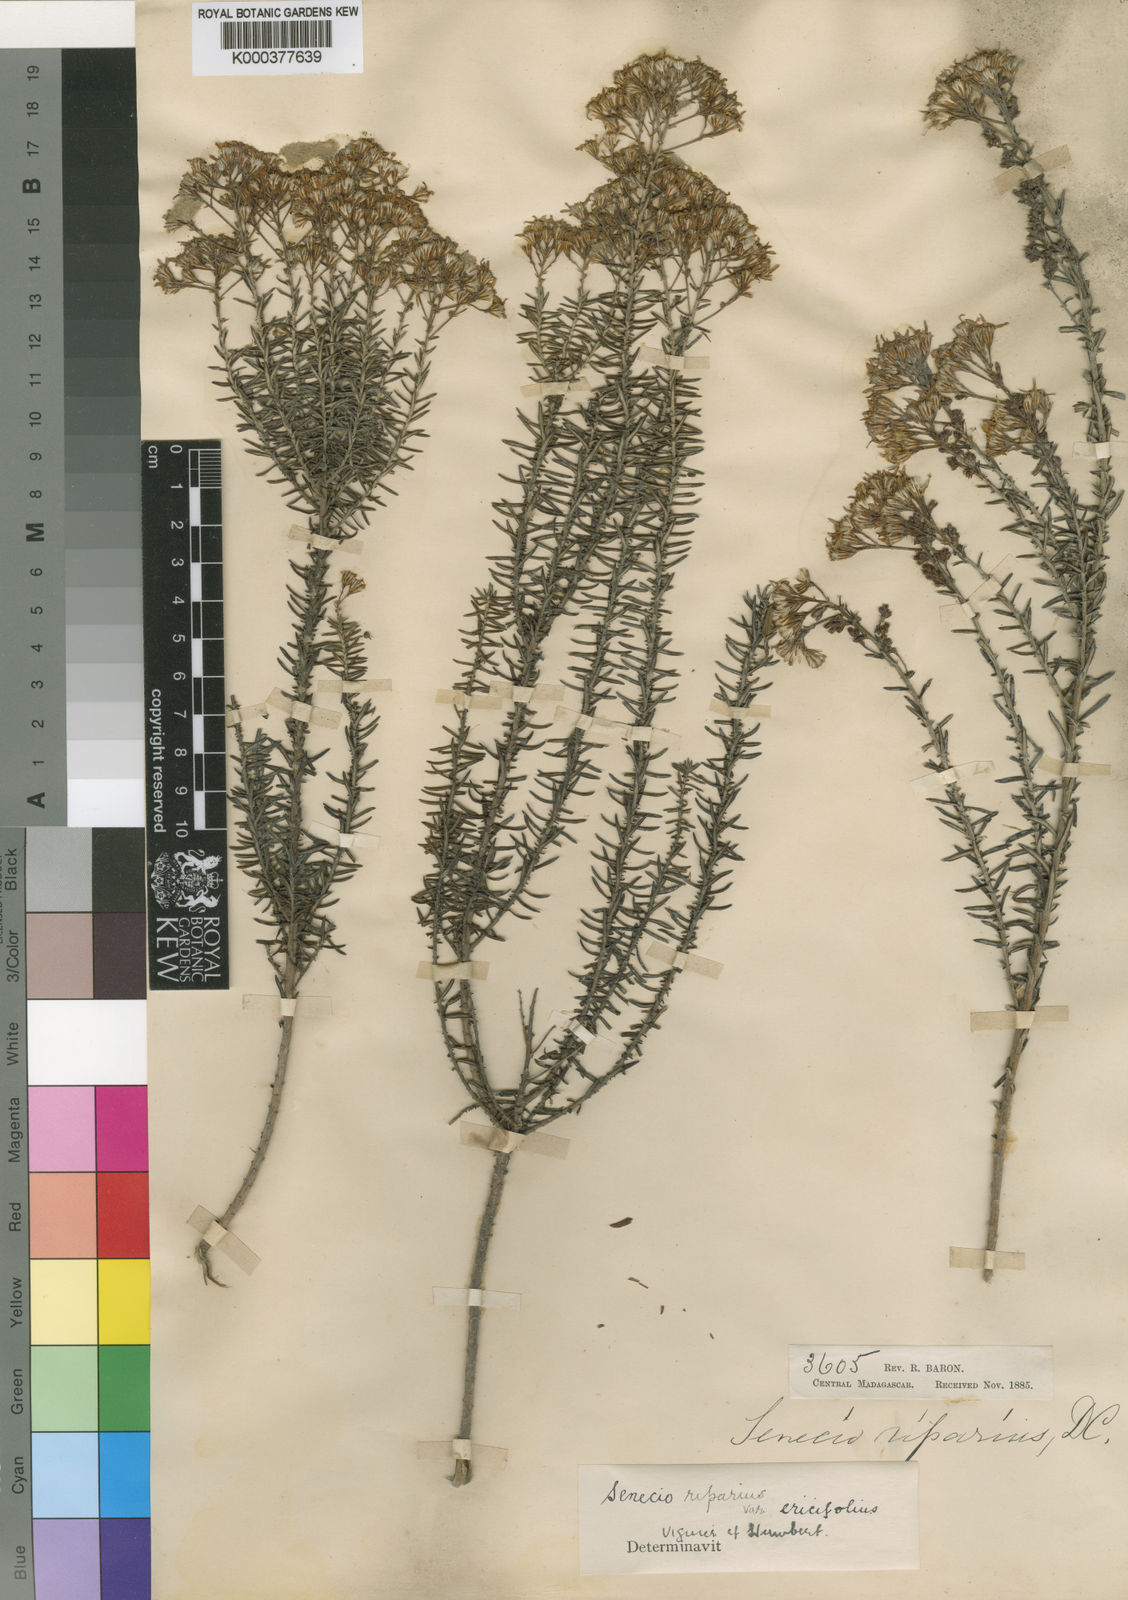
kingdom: Plantae
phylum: Tracheophyta
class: Magnoliopsida
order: Asterales
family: Asteraceae
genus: Hubertia
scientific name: Hubertia riparia
